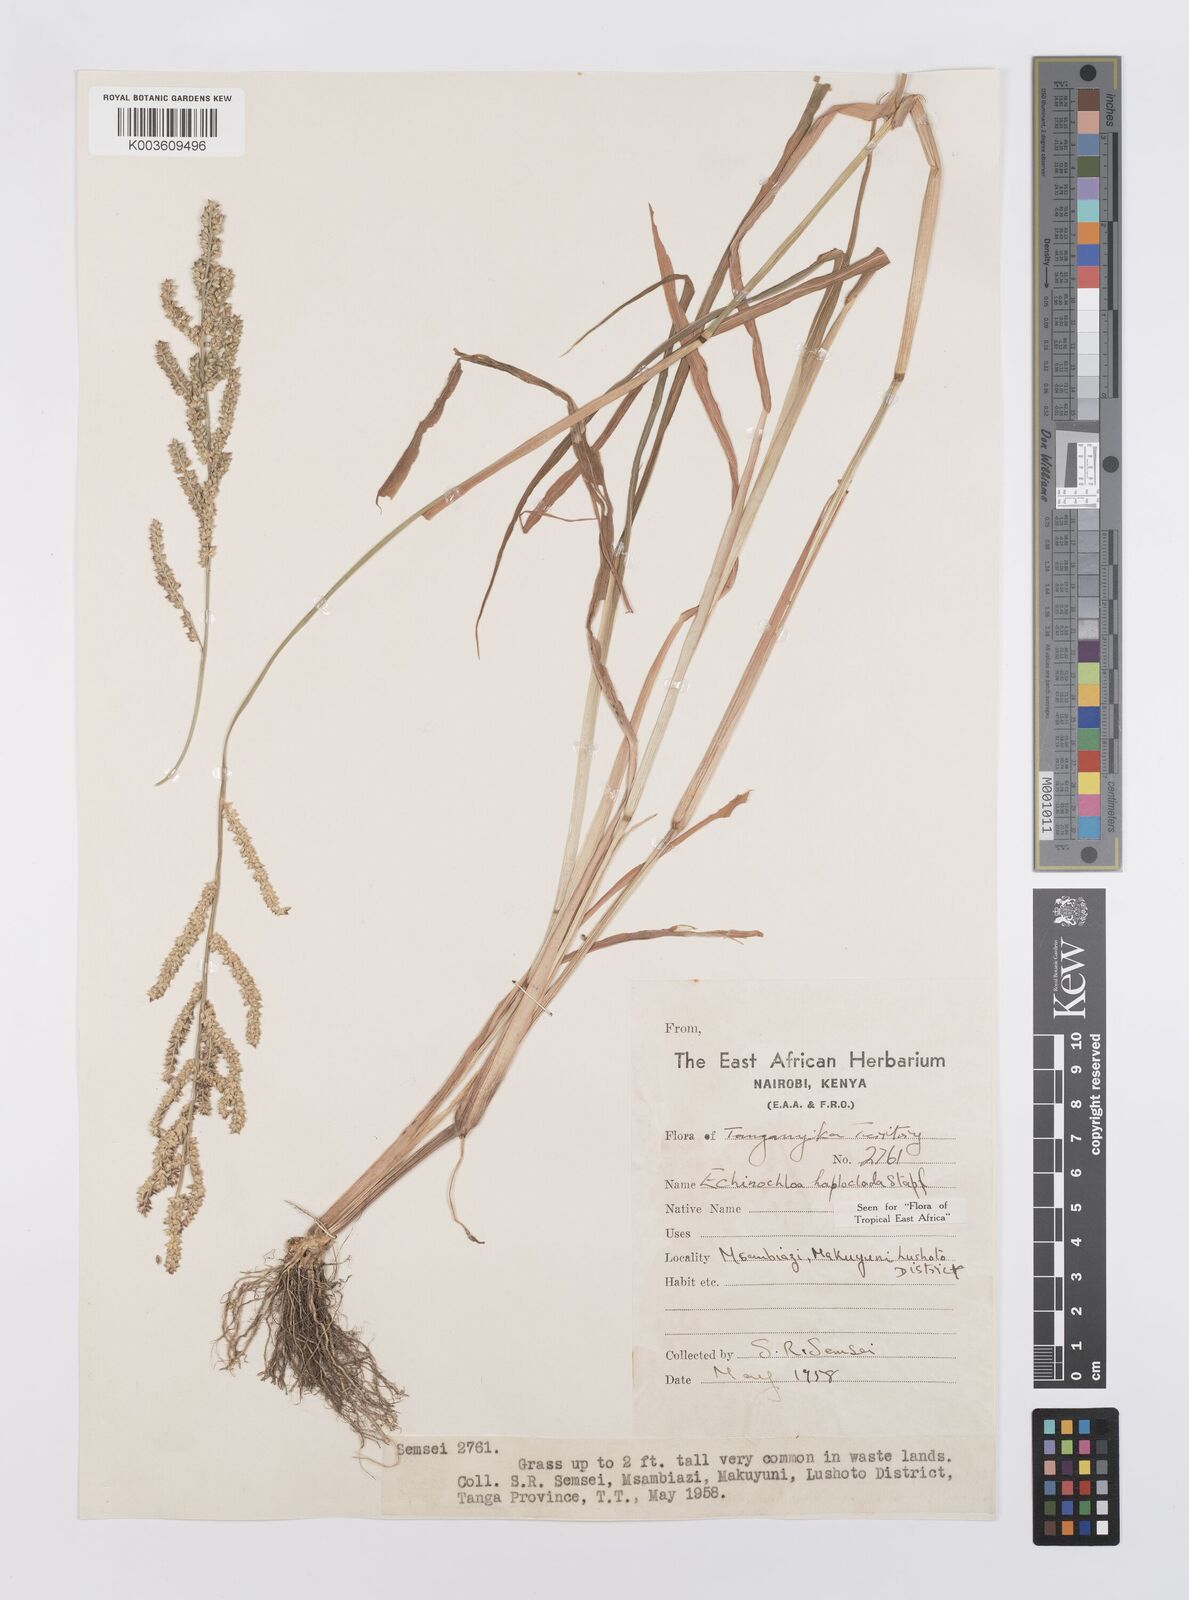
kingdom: Plantae
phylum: Tracheophyta
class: Liliopsida
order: Poales
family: Poaceae
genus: Echinochloa
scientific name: Echinochloa haploclada
